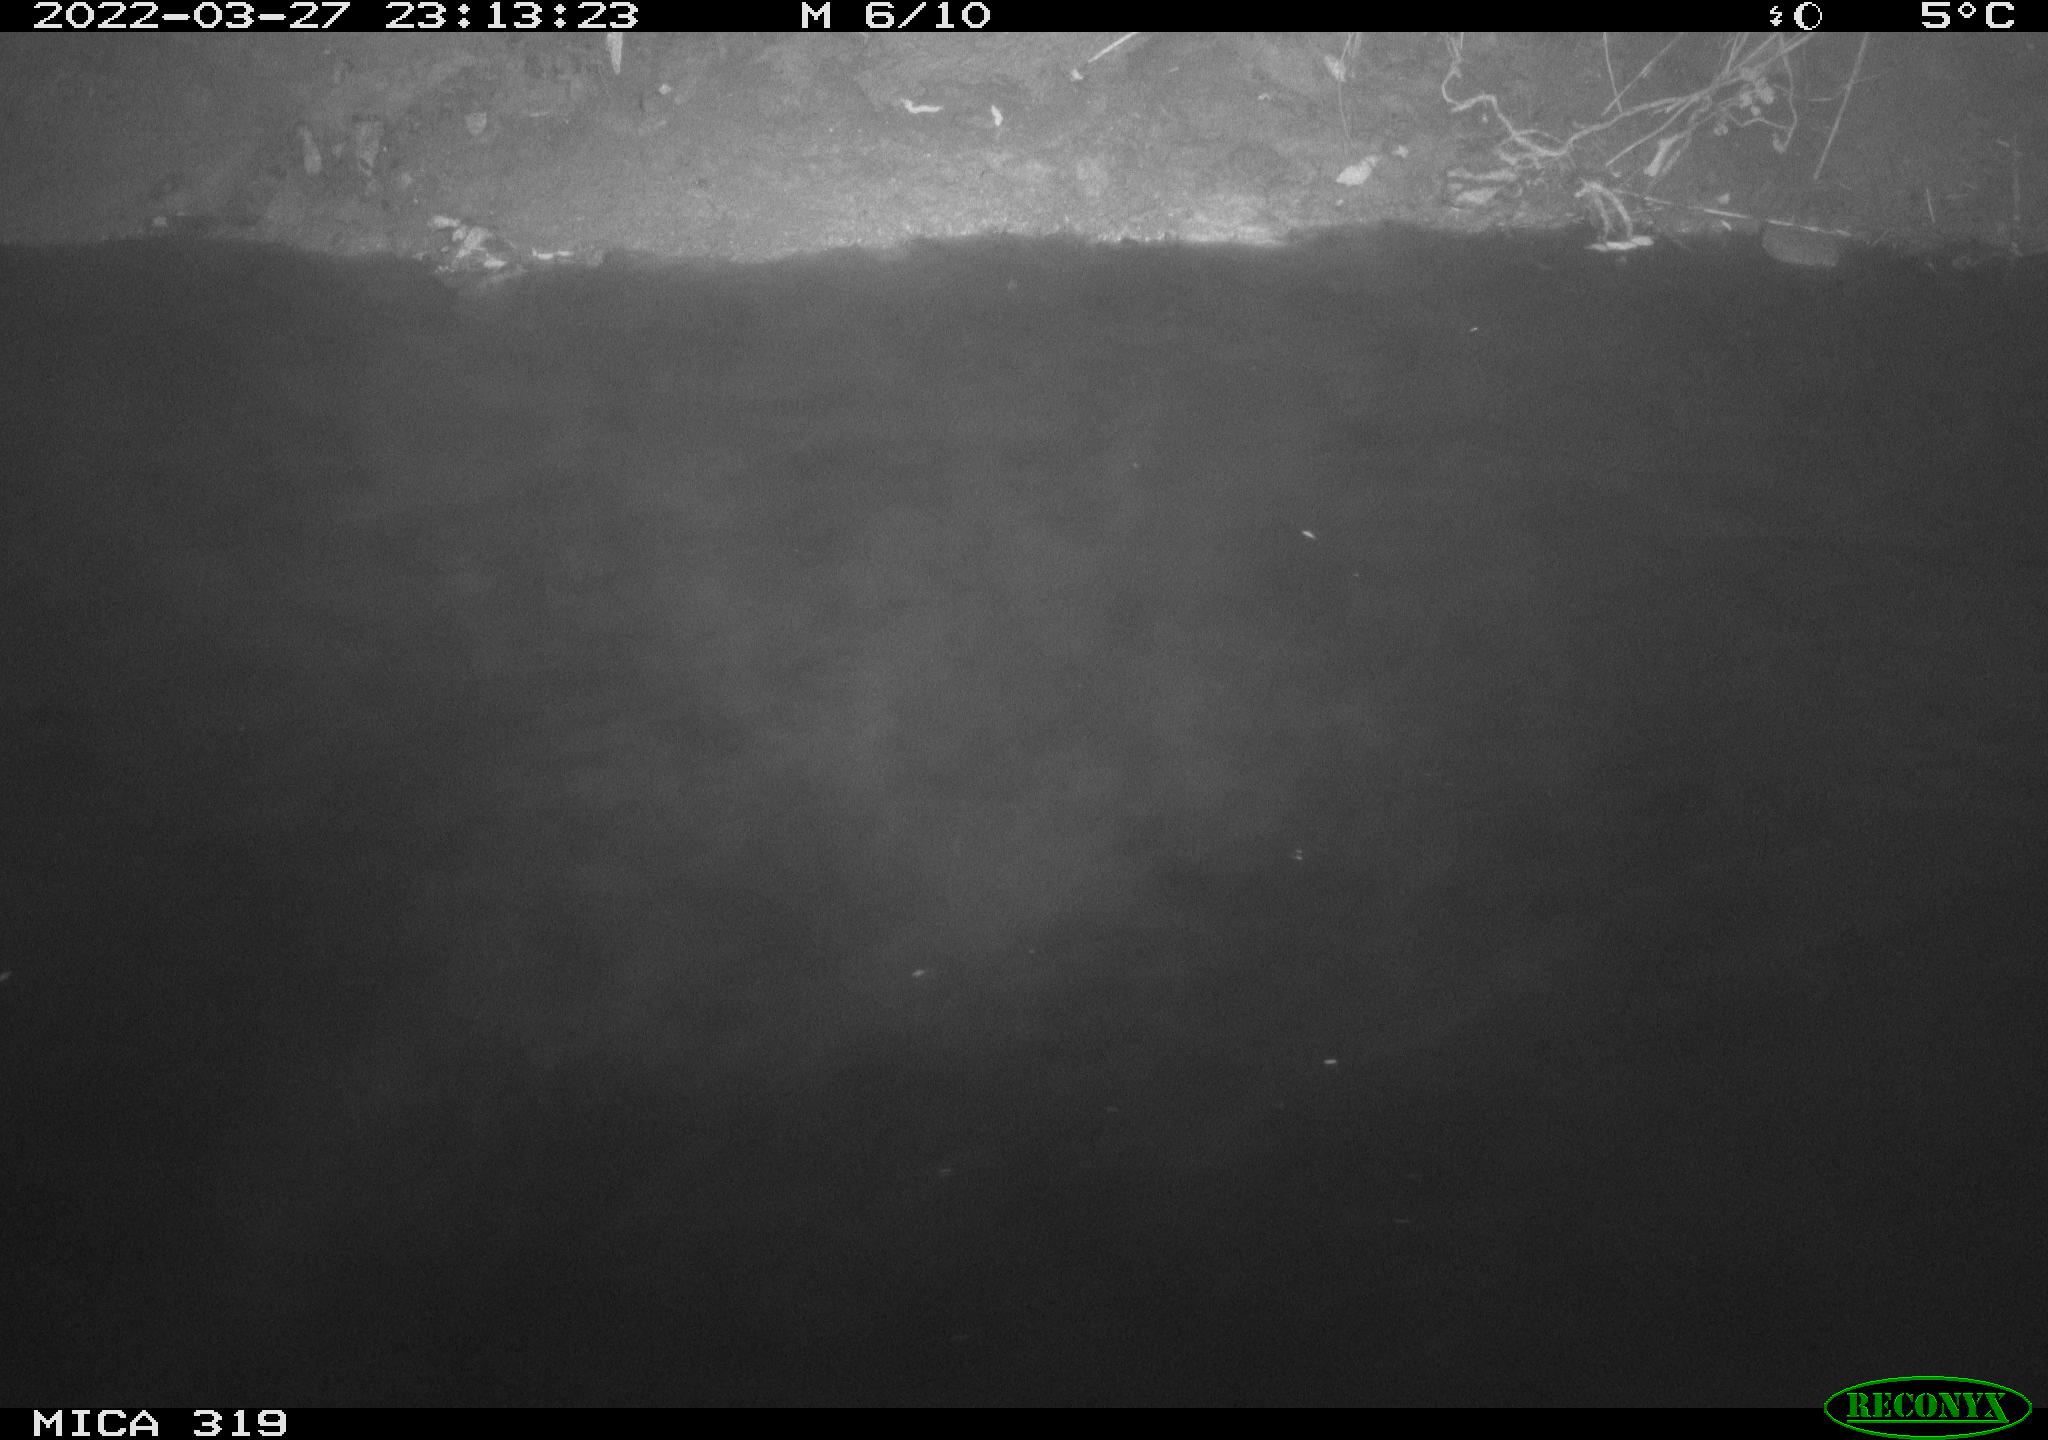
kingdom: Animalia
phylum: Chordata
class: Aves
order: Anseriformes
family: Anatidae
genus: Anas
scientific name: Anas platyrhynchos
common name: Mallard
